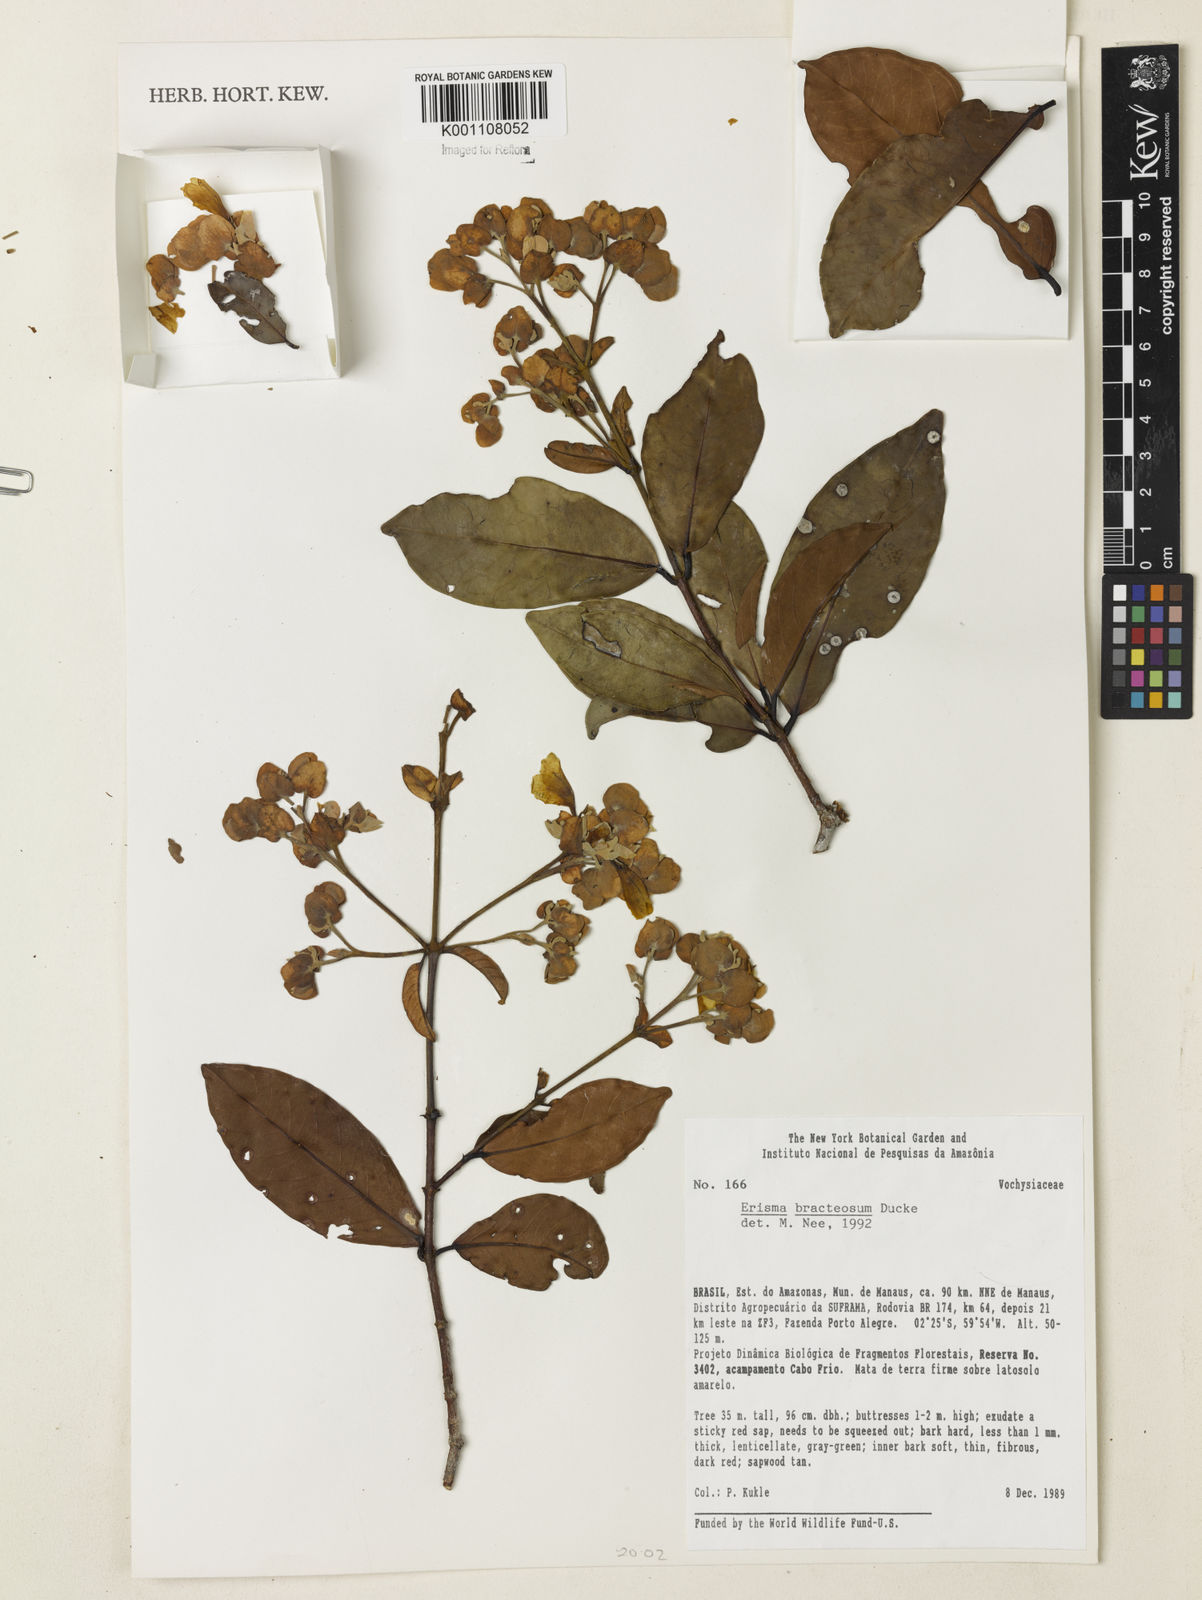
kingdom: Plantae
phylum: Tracheophyta
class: Magnoliopsida
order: Myrtales
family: Vochysiaceae
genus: Erisma
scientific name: Erisma bracteosum
